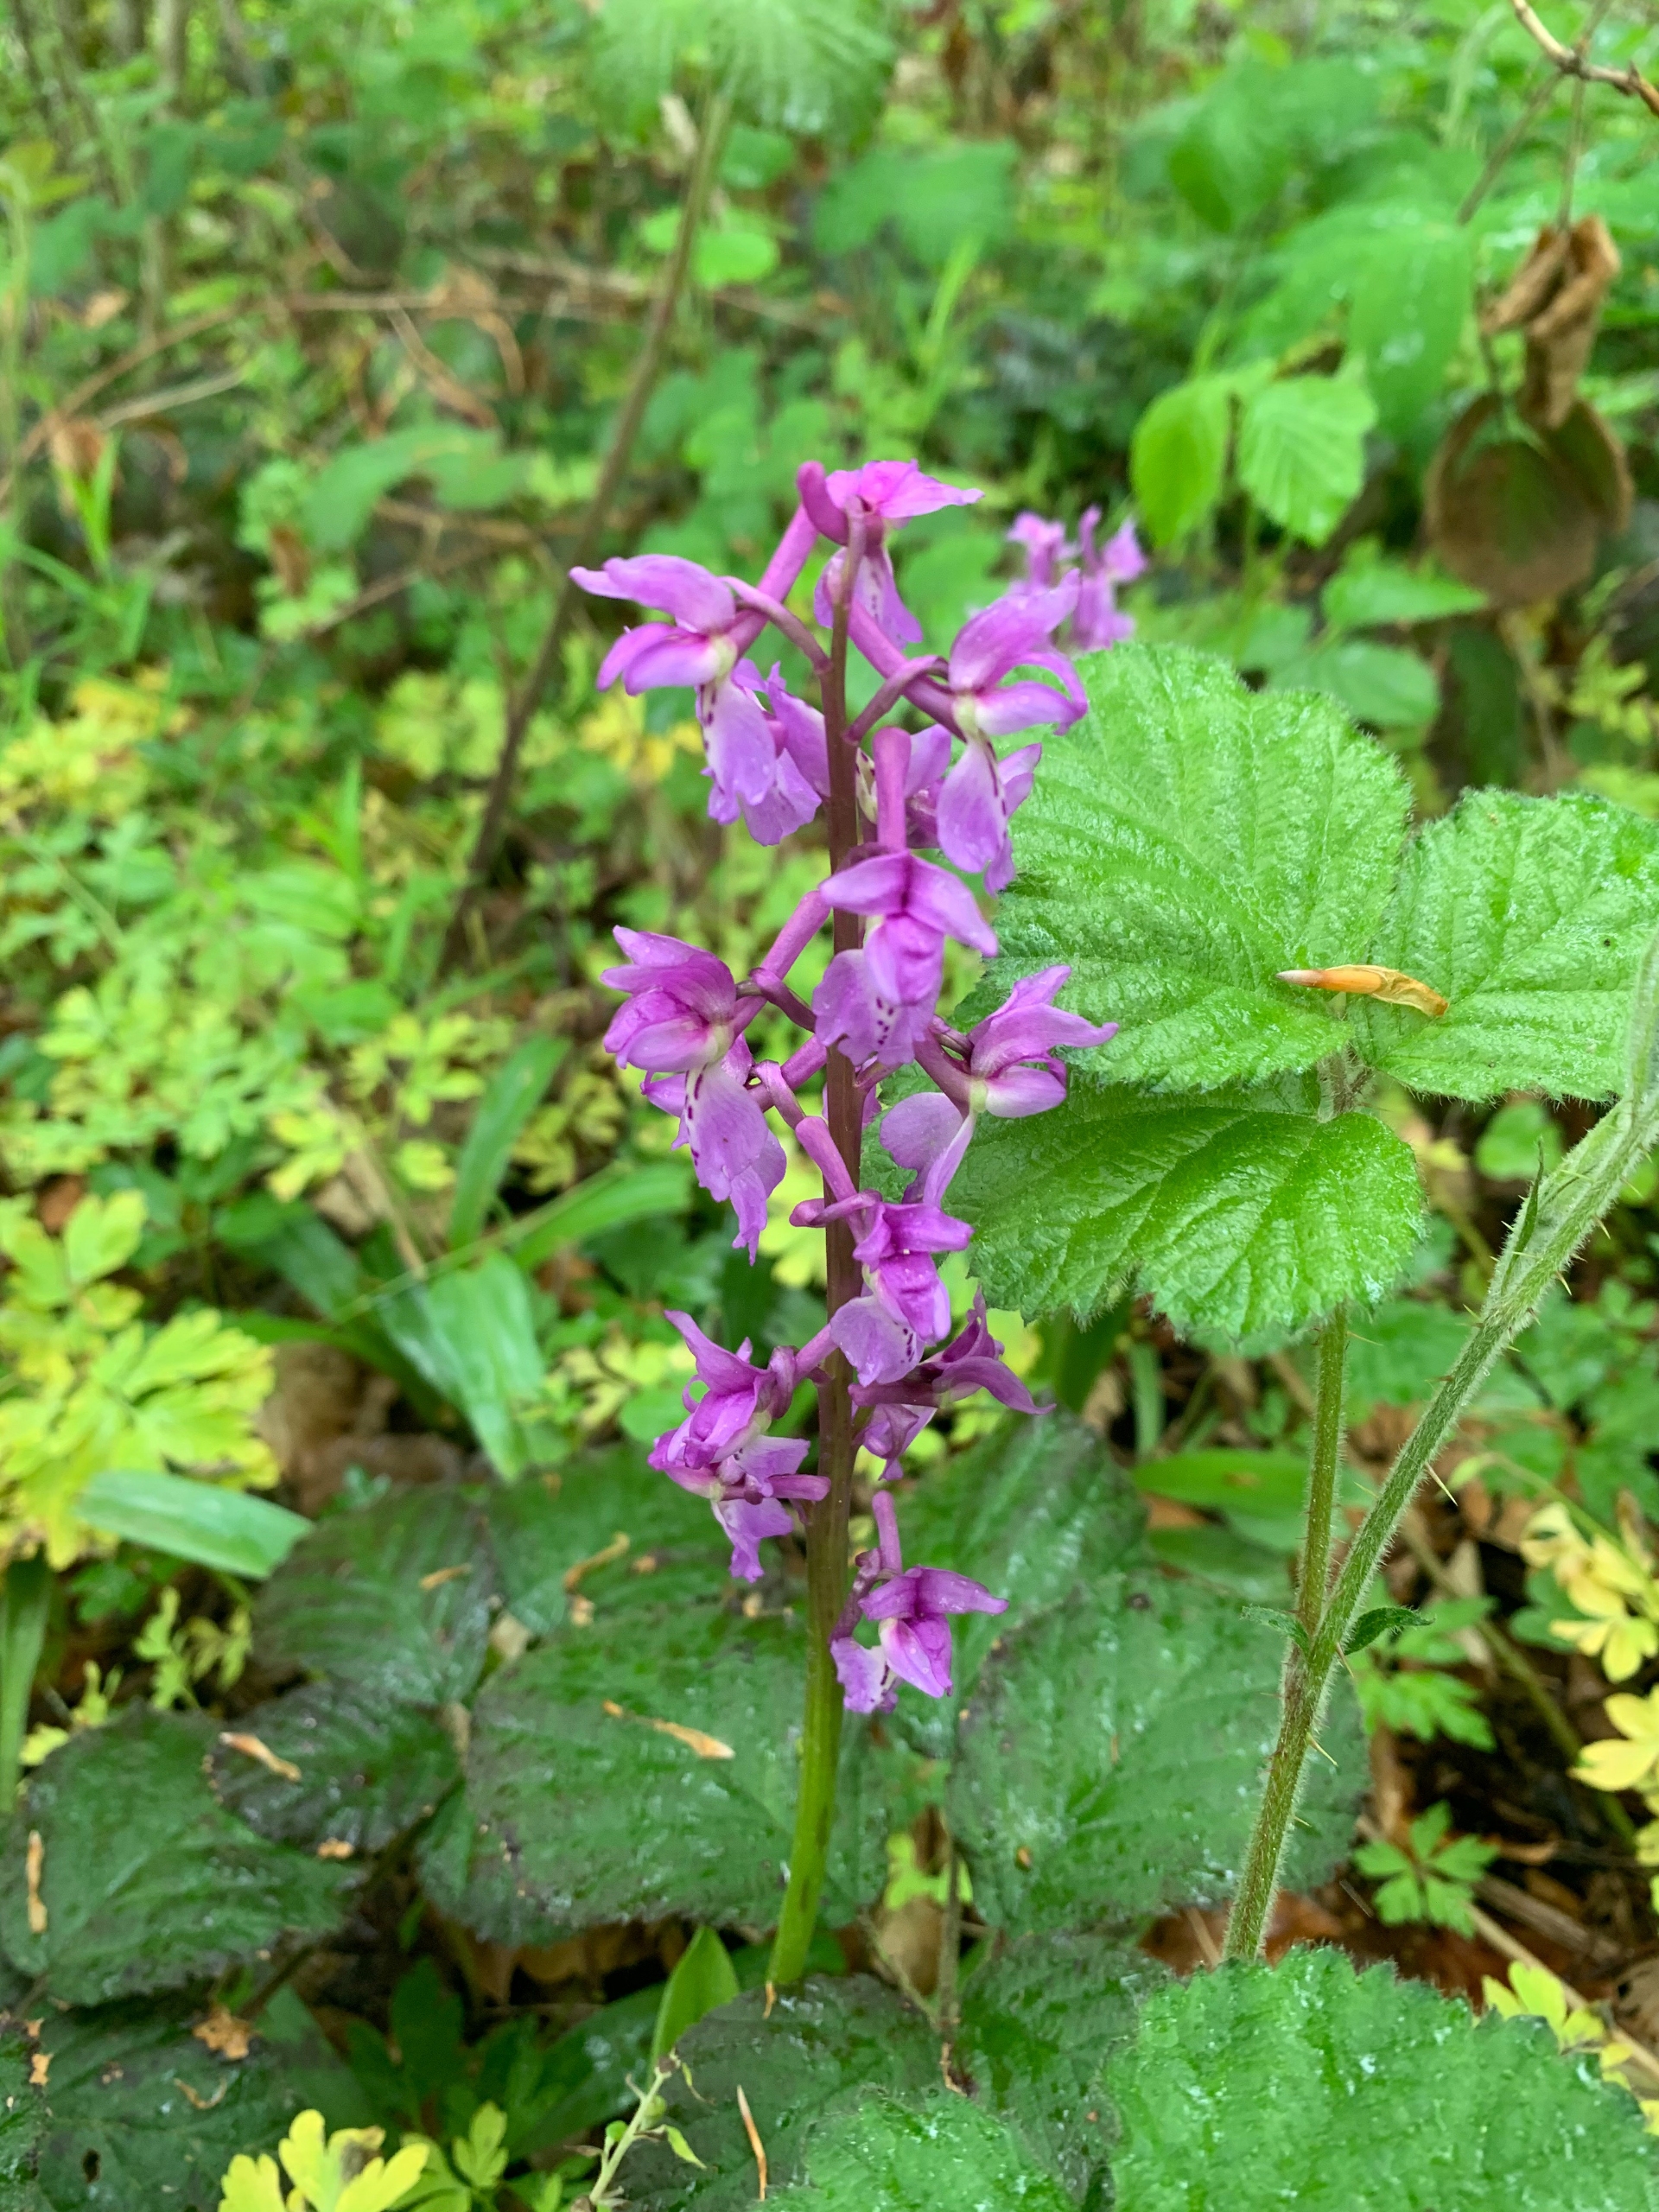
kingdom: Plantae
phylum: Tracheophyta
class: Liliopsida
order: Asparagales
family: Orchidaceae
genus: Orchis
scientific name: Orchis mascula
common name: Tyndakset gøgeurt
